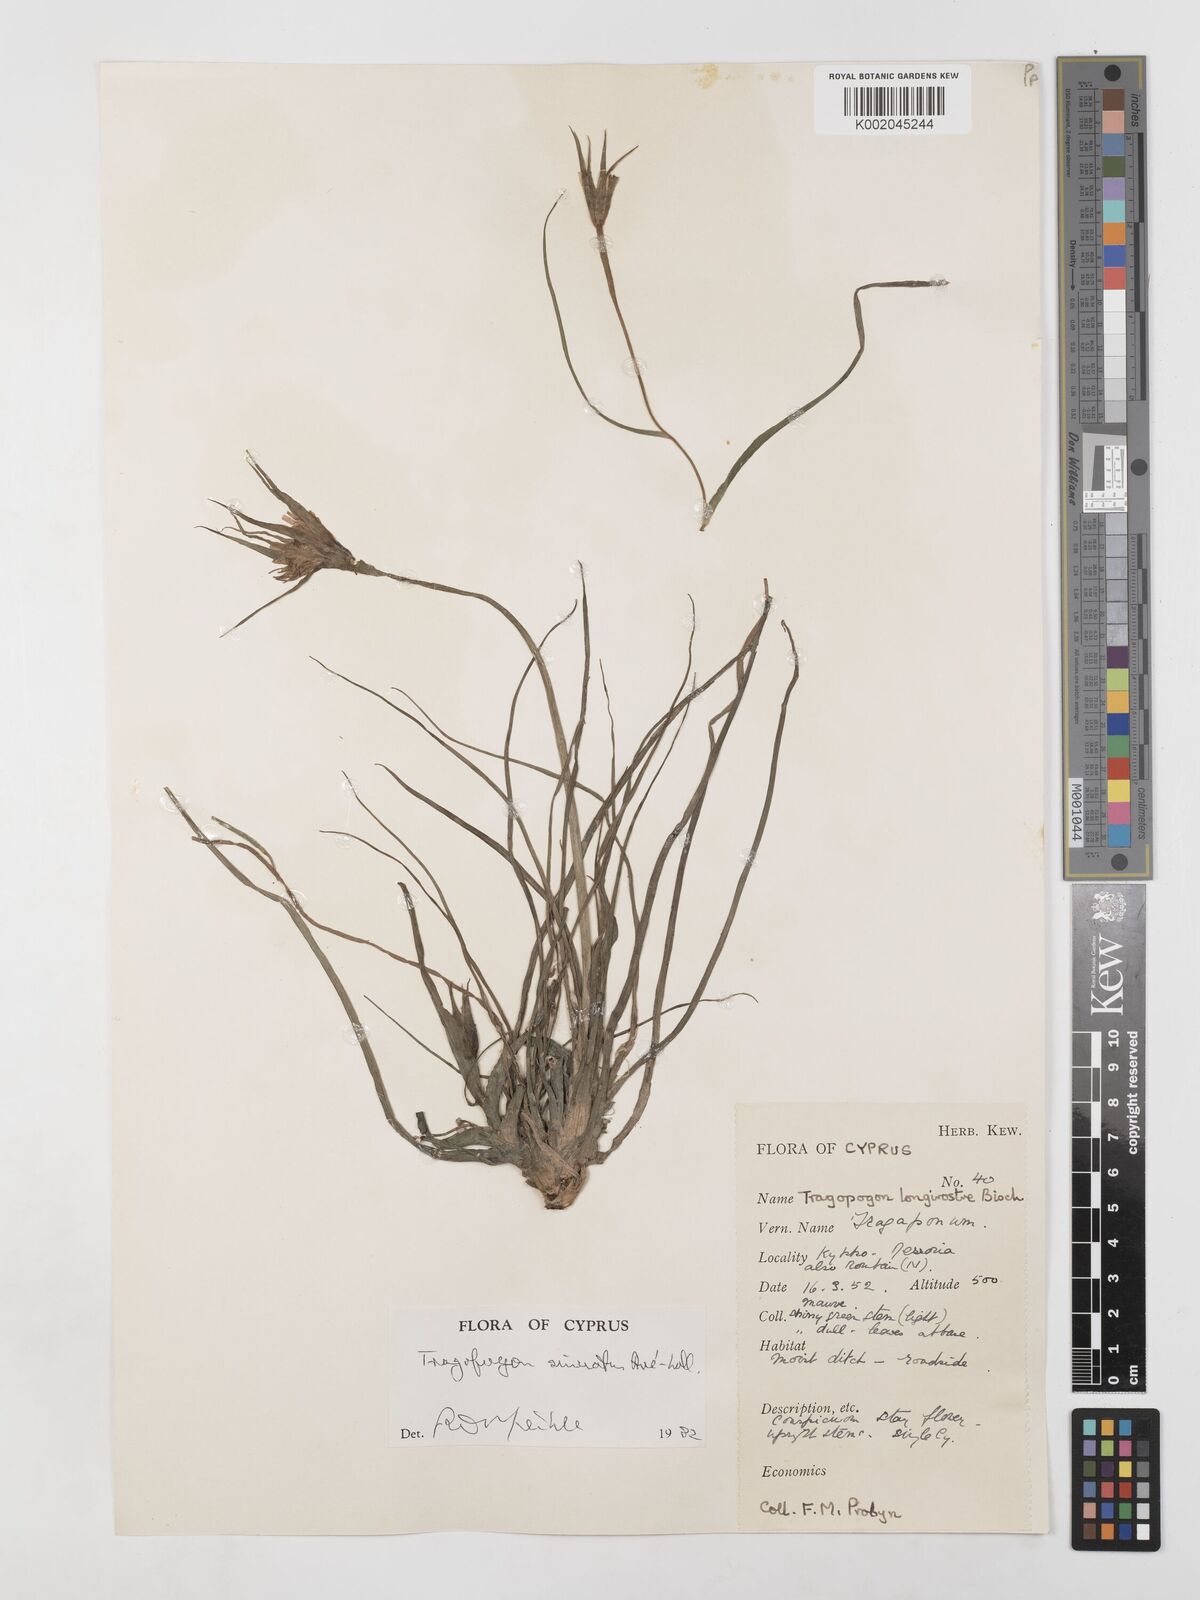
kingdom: Plantae
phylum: Tracheophyta
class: Magnoliopsida
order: Asterales
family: Asteraceae
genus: Tragopogon
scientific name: Tragopogon coelesyriacus
